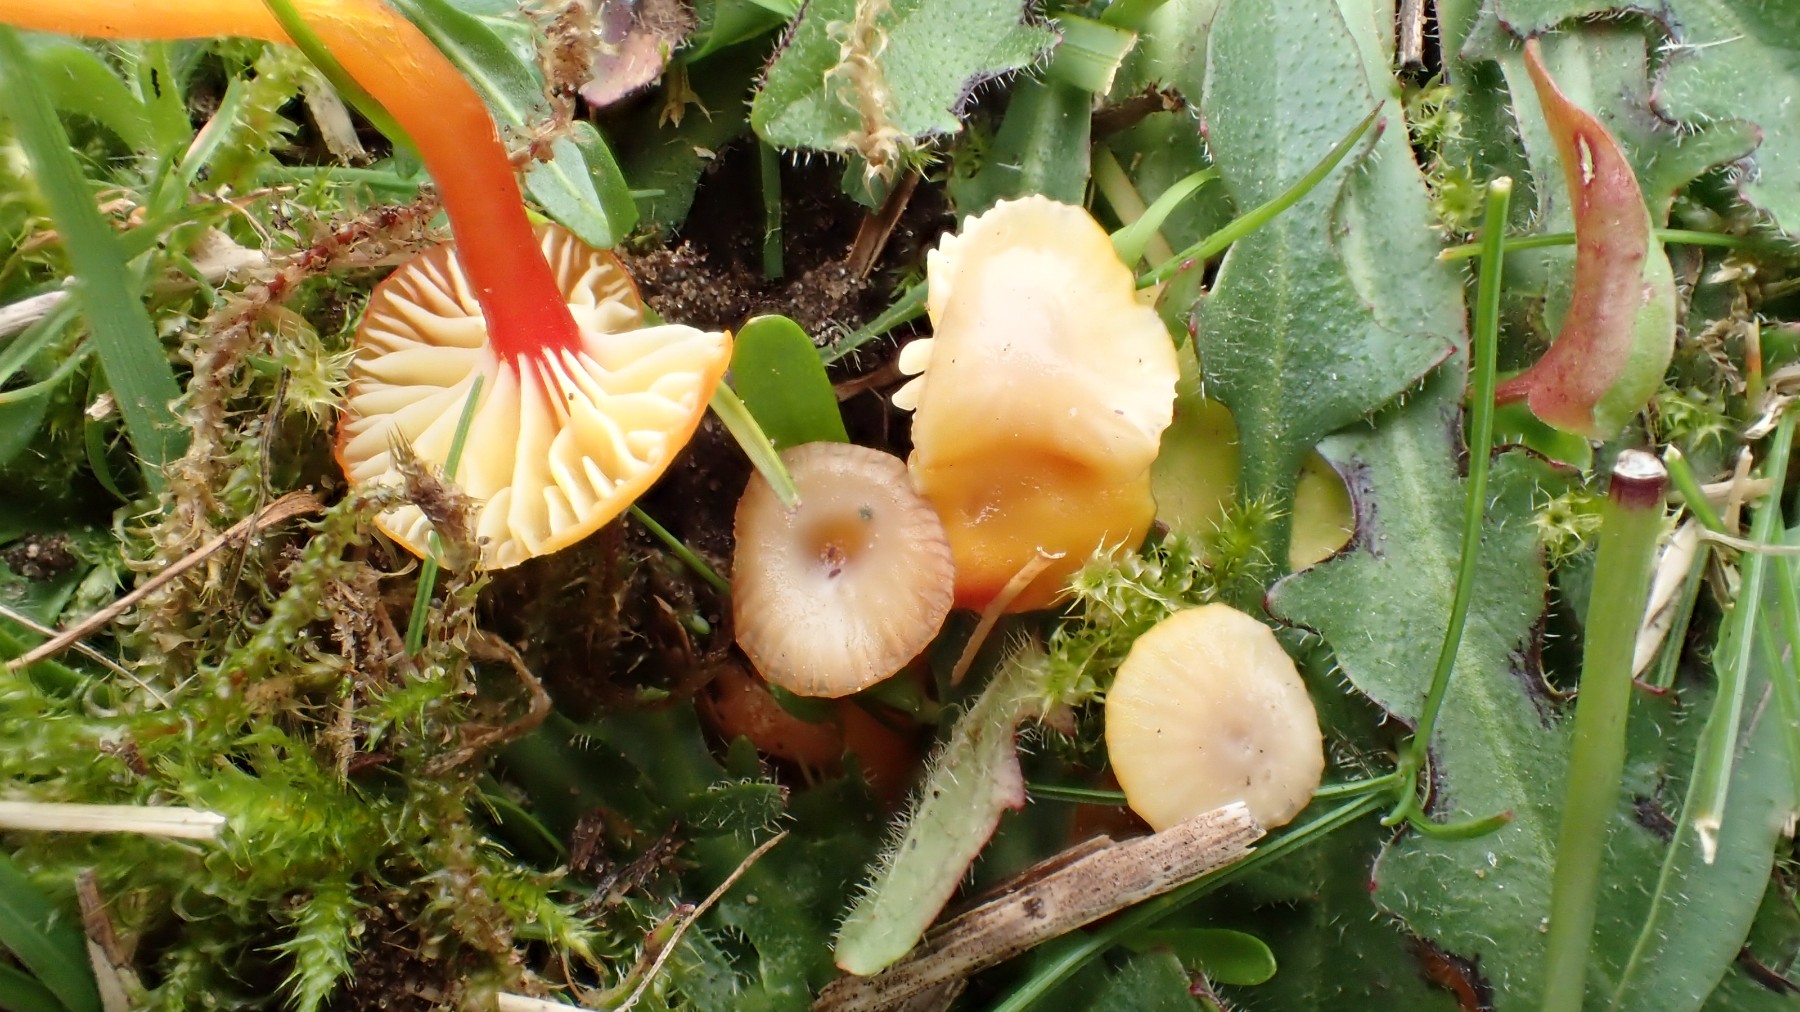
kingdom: Fungi
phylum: Basidiomycota
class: Agaricomycetes
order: Agaricales
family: Hygrophoraceae
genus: Hygrocybe
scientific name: Hygrocybe insipida
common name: liden vokshat
